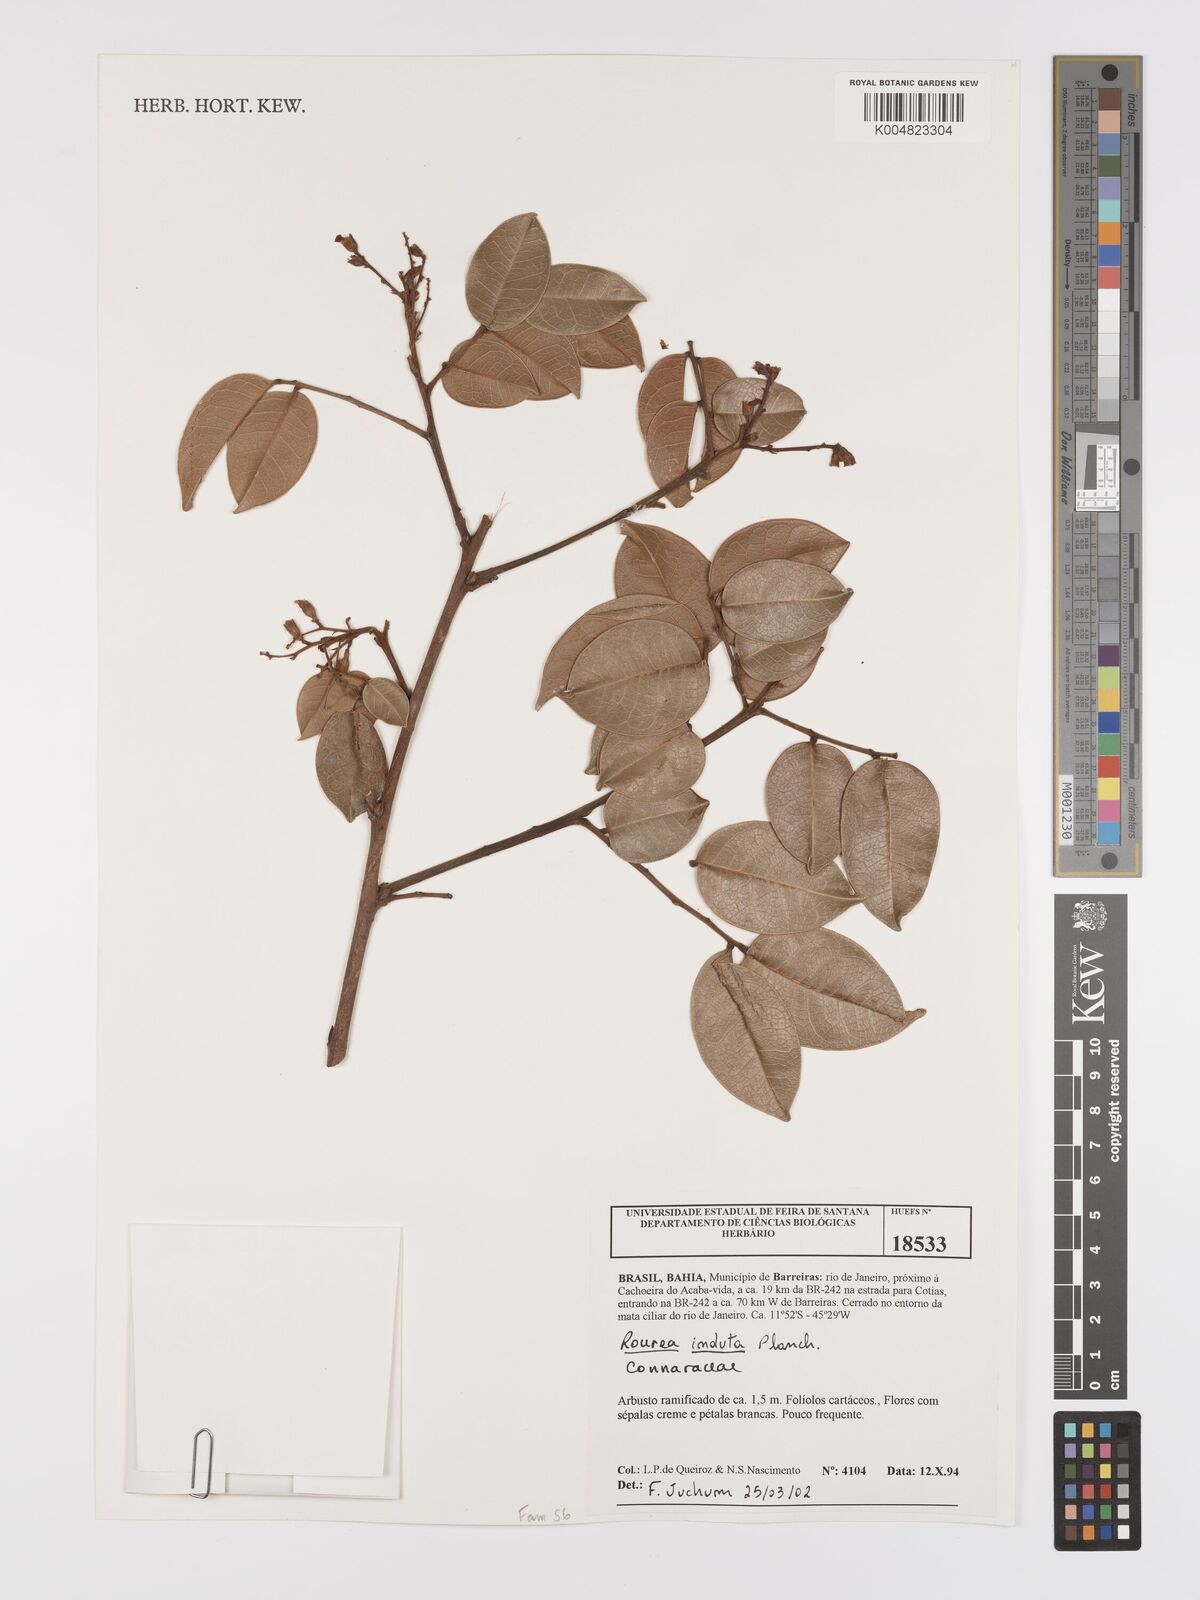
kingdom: Plantae
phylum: Tracheophyta
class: Magnoliopsida
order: Oxalidales
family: Connaraceae
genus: Rourea
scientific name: Rourea induta
